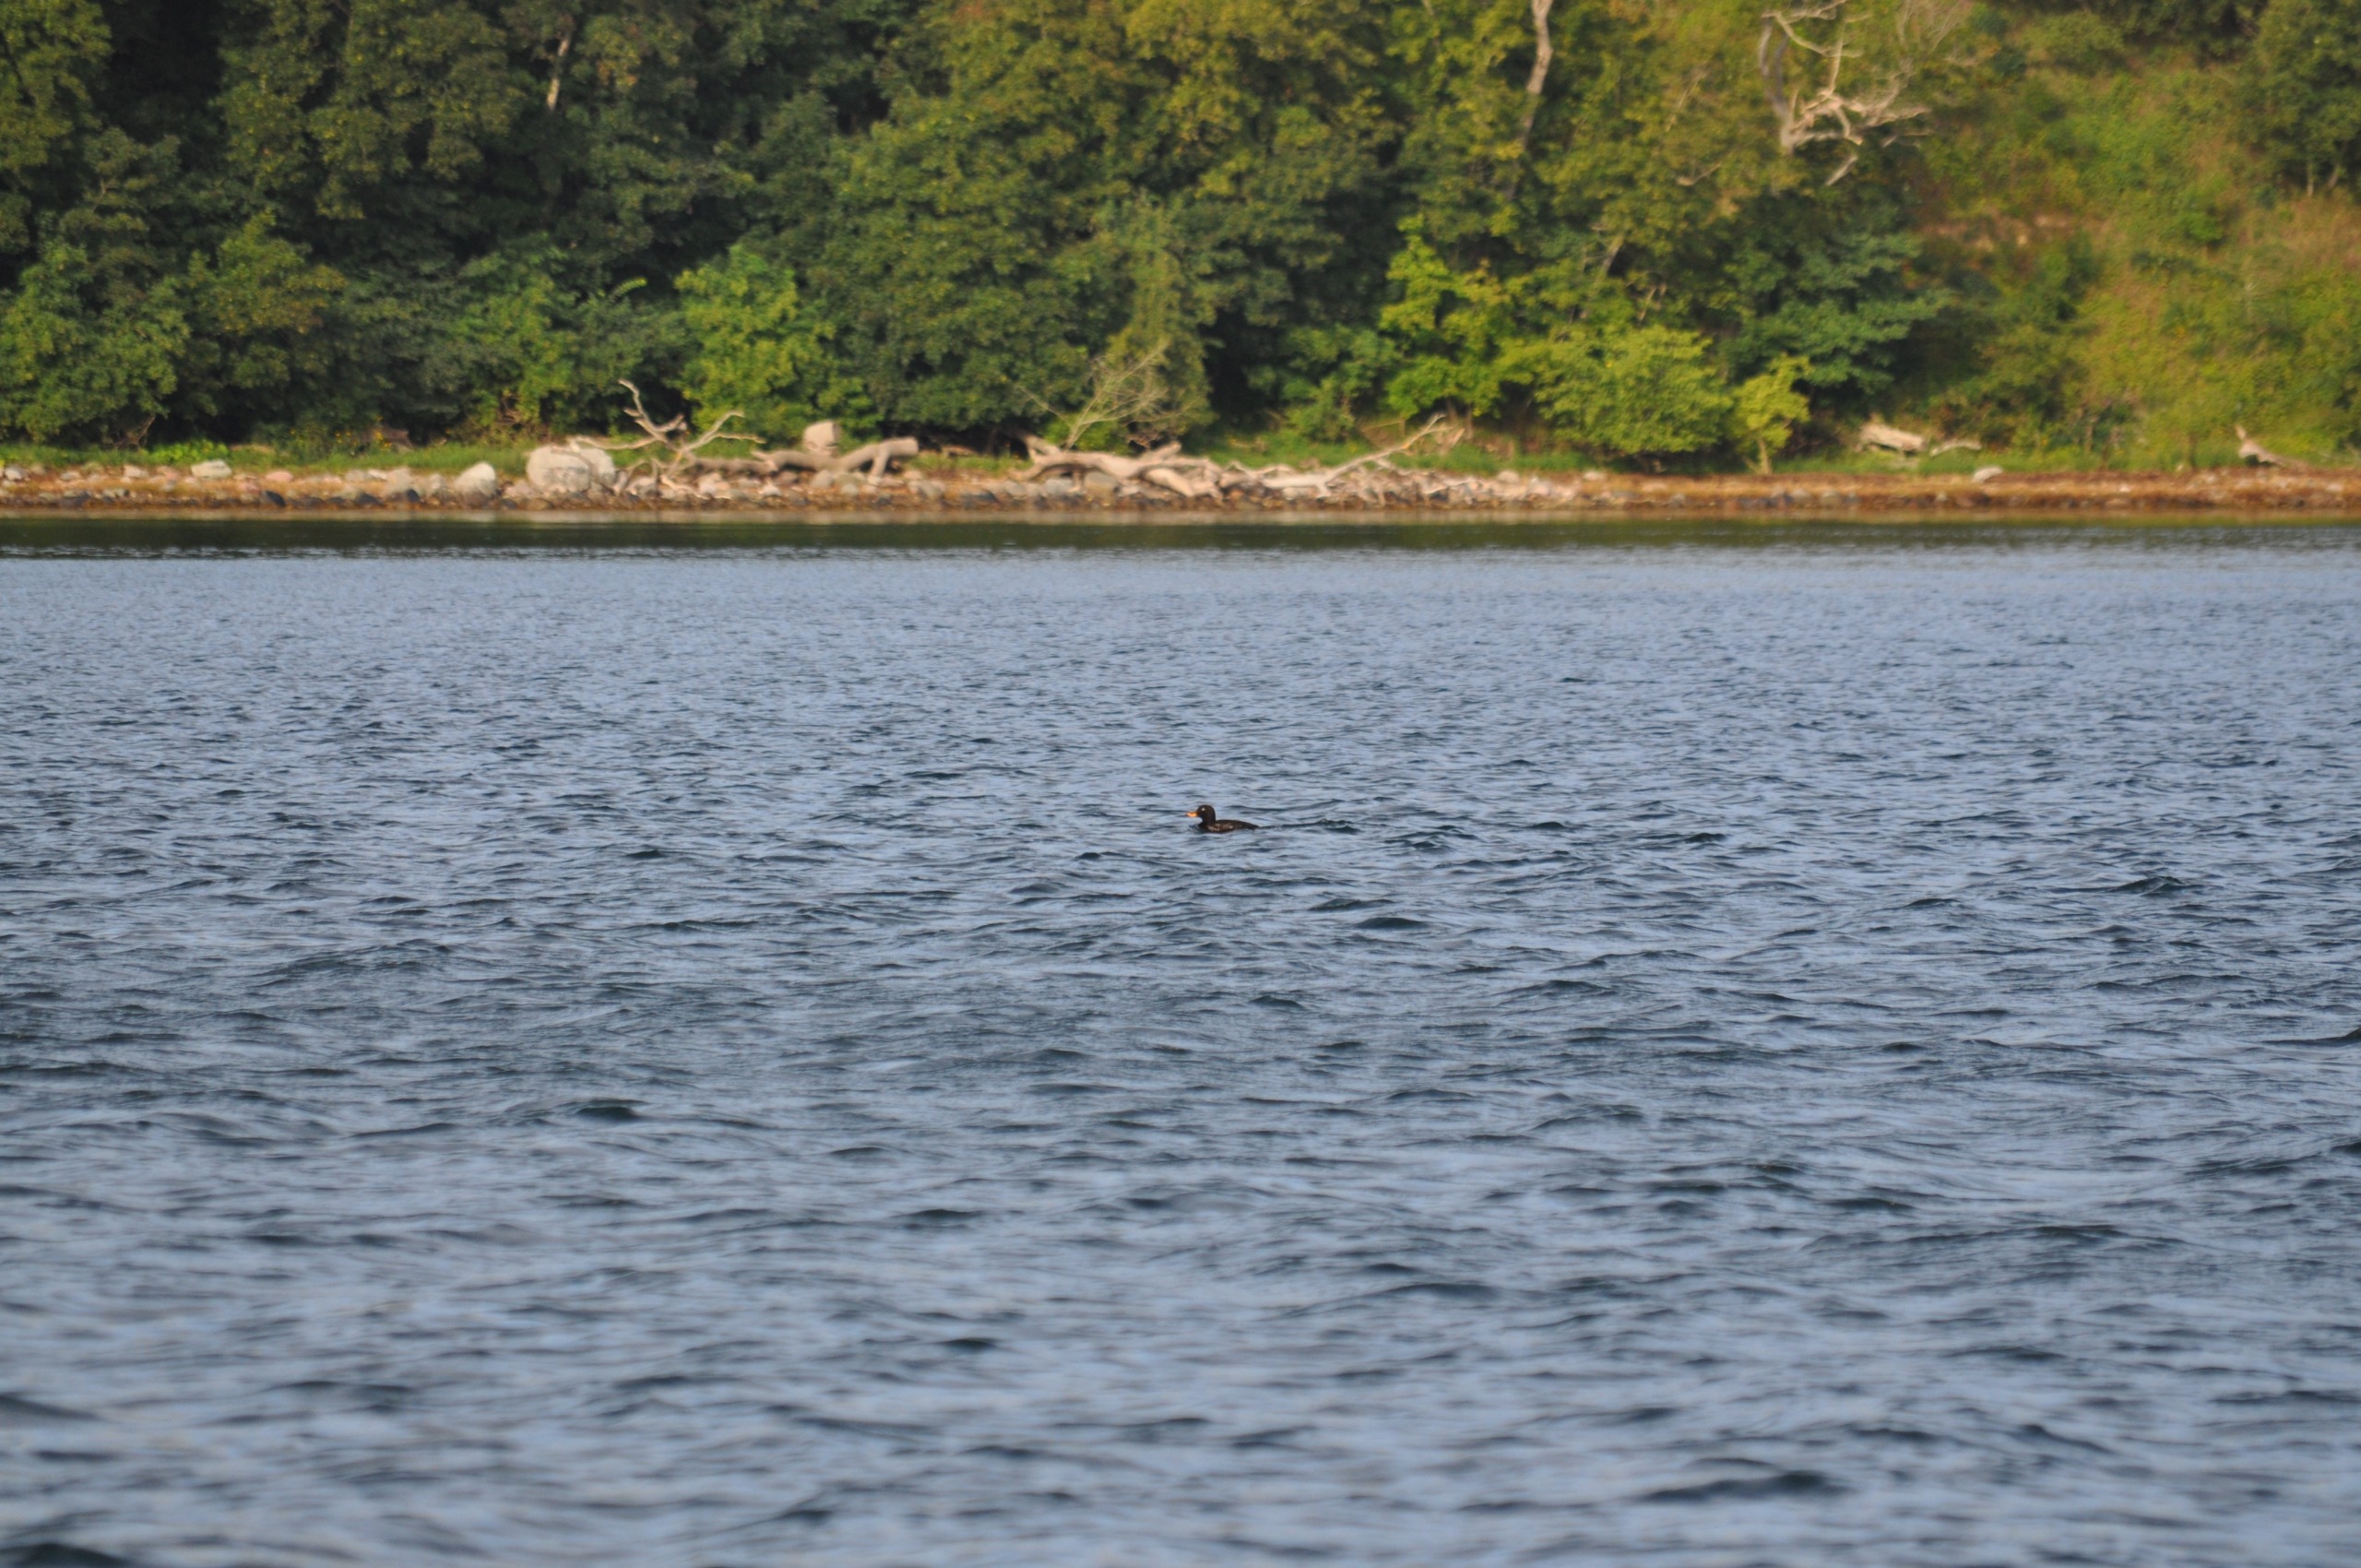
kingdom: Animalia
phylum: Chordata
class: Aves
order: Anseriformes
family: Anatidae
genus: Melanitta
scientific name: Melanitta fusca
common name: Fløjlsand
